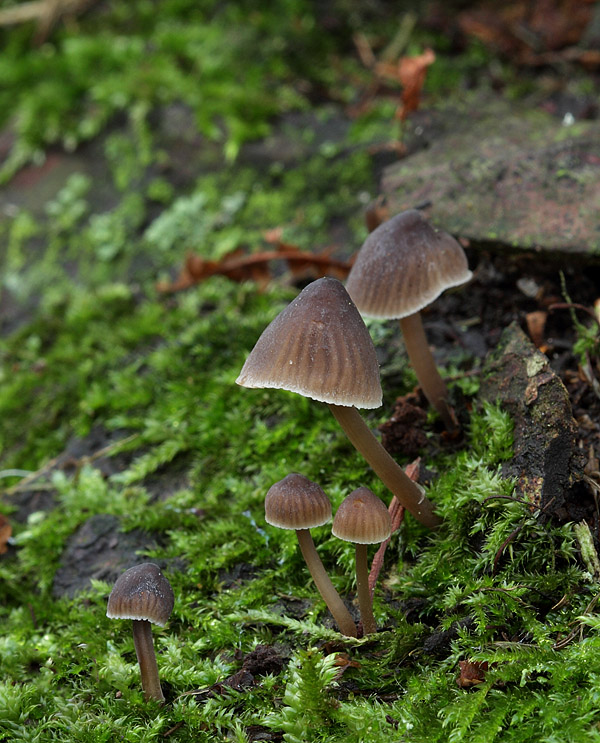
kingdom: Fungi
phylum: Basidiomycota
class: Agaricomycetes
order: Agaricales
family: Mycenaceae
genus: Mycena
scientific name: Mycena erubescens
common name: galde-huesvamp
